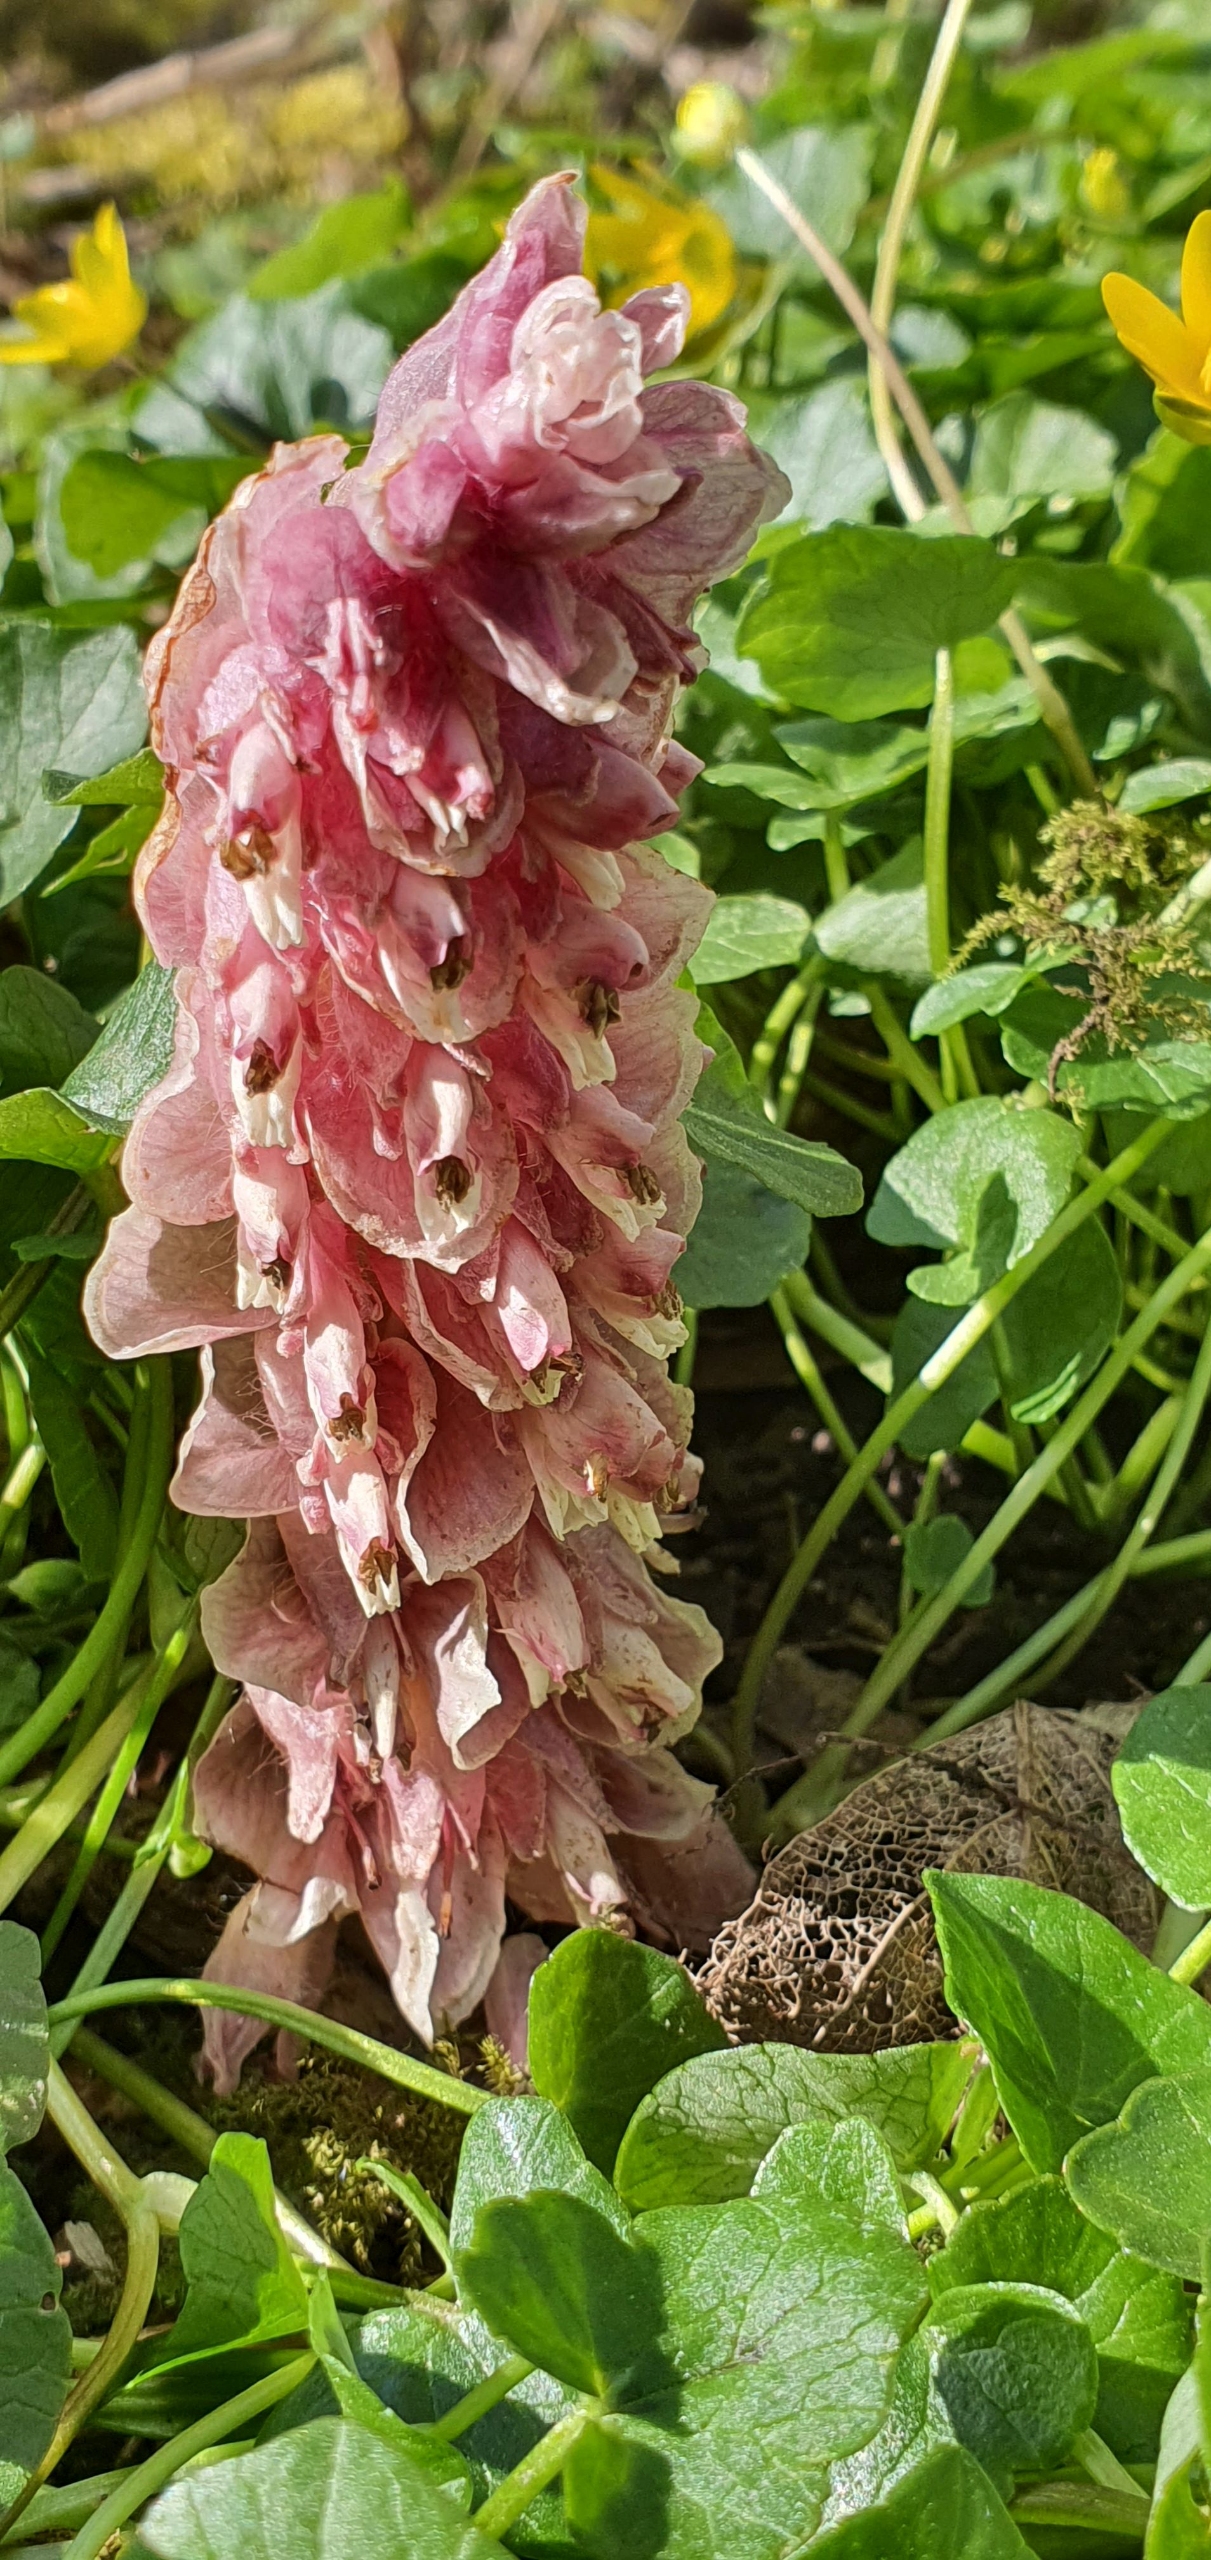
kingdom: Plantae
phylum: Tracheophyta
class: Magnoliopsida
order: Lamiales
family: Orobanchaceae
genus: Lathraea
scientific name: Lathraea squamaria
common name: Skælrod
